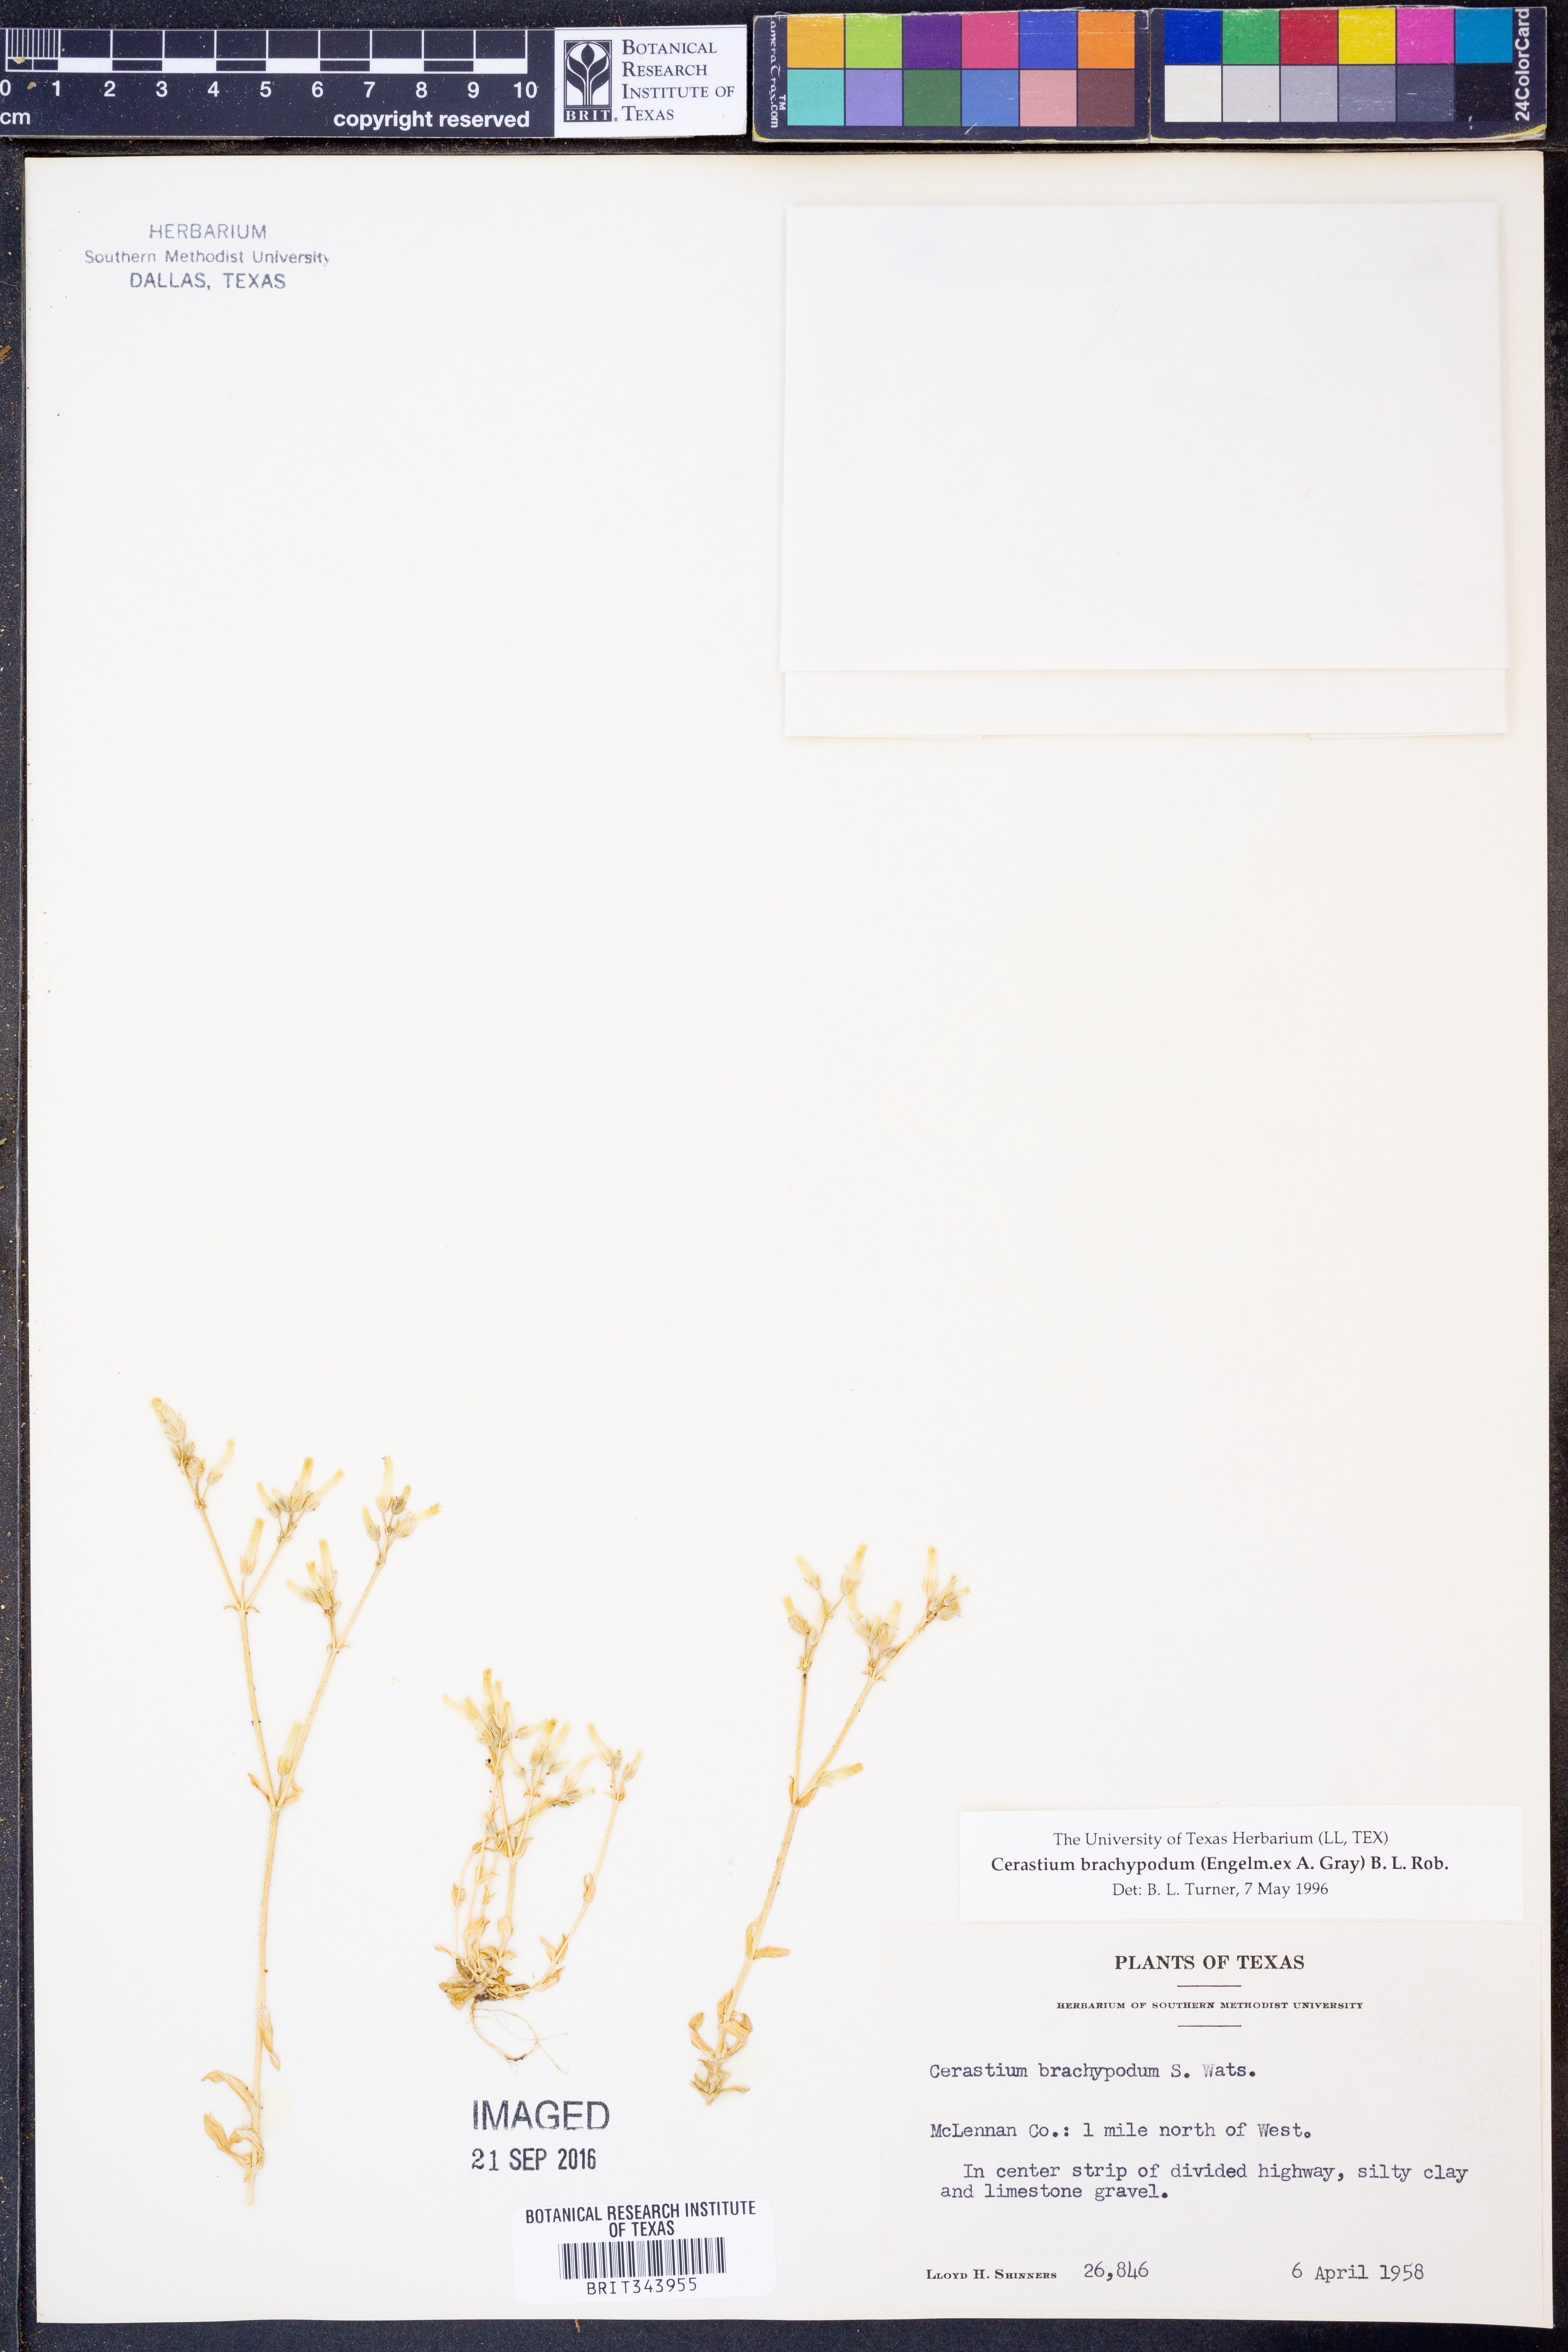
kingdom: Plantae
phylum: Tracheophyta
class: Magnoliopsida
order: Caryophyllales
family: Caryophyllaceae
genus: Cerastium
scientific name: Cerastium brachypodum
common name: Short-pedicelled nodding chickweed
